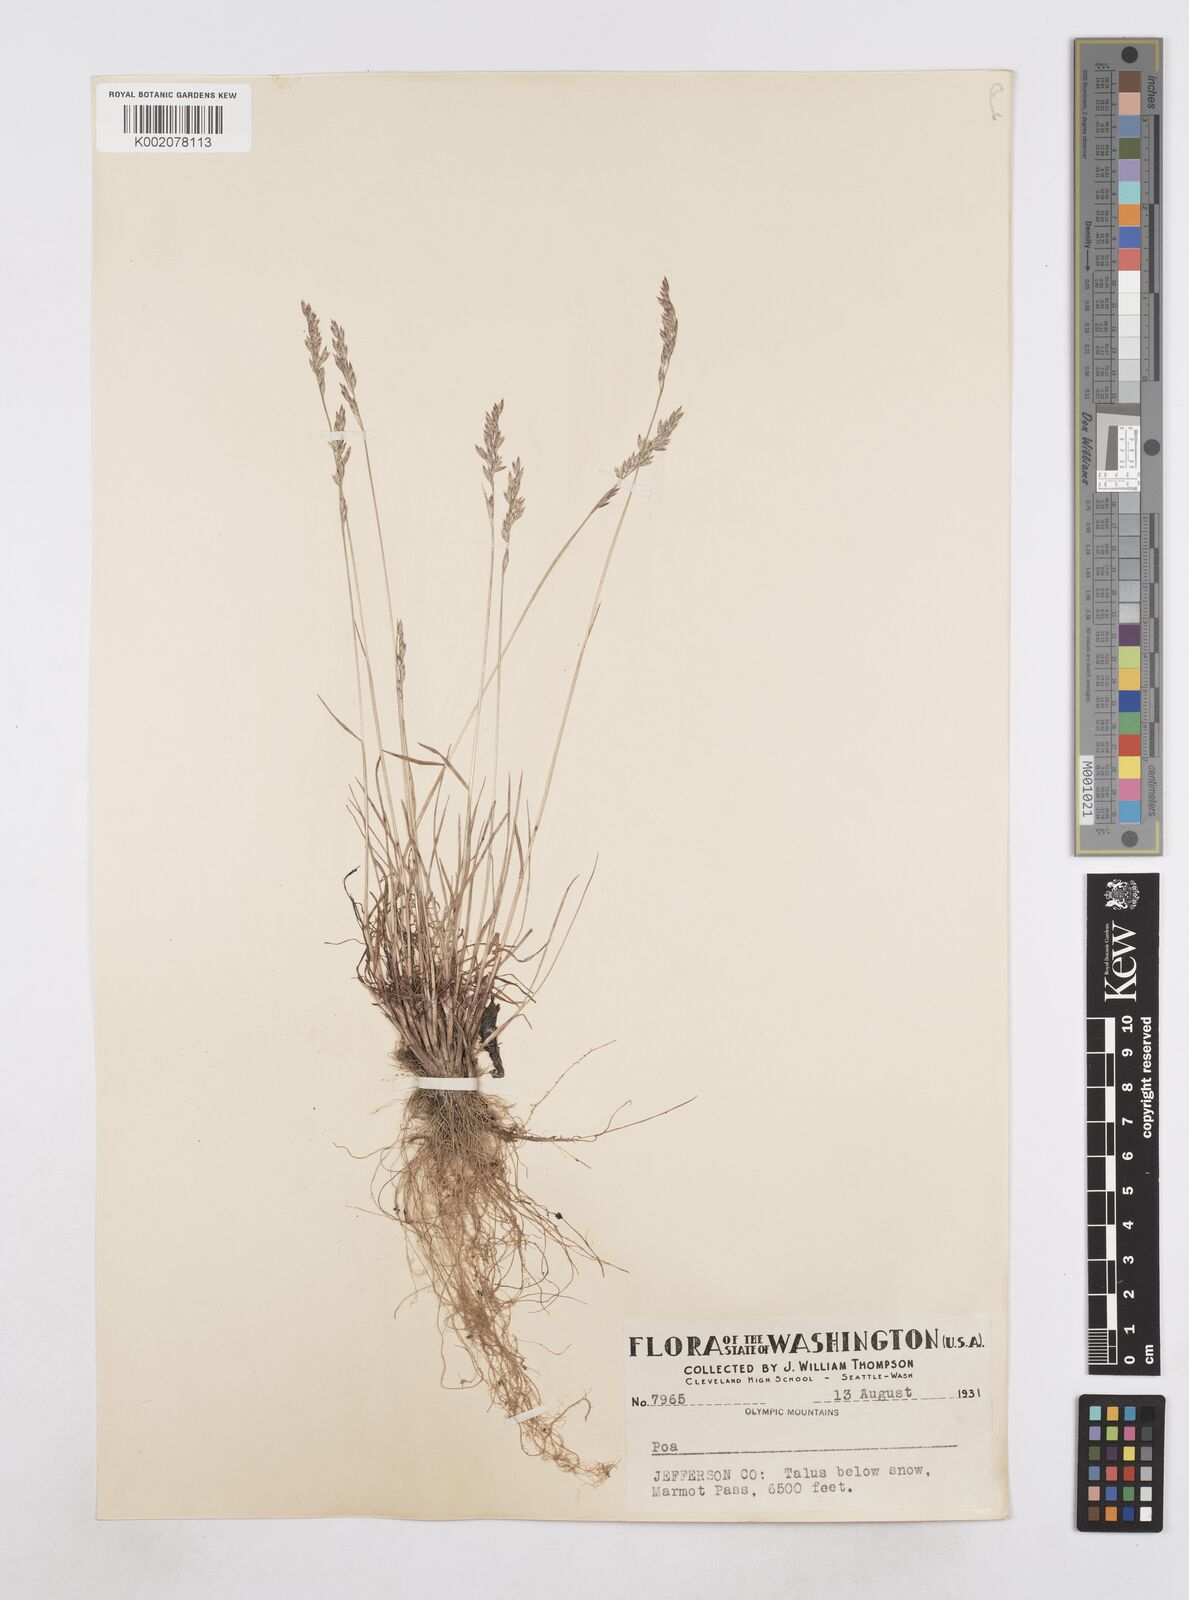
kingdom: Plantae
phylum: Tracheophyta
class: Liliopsida
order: Poales
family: Poaceae
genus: Poa
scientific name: Poa
